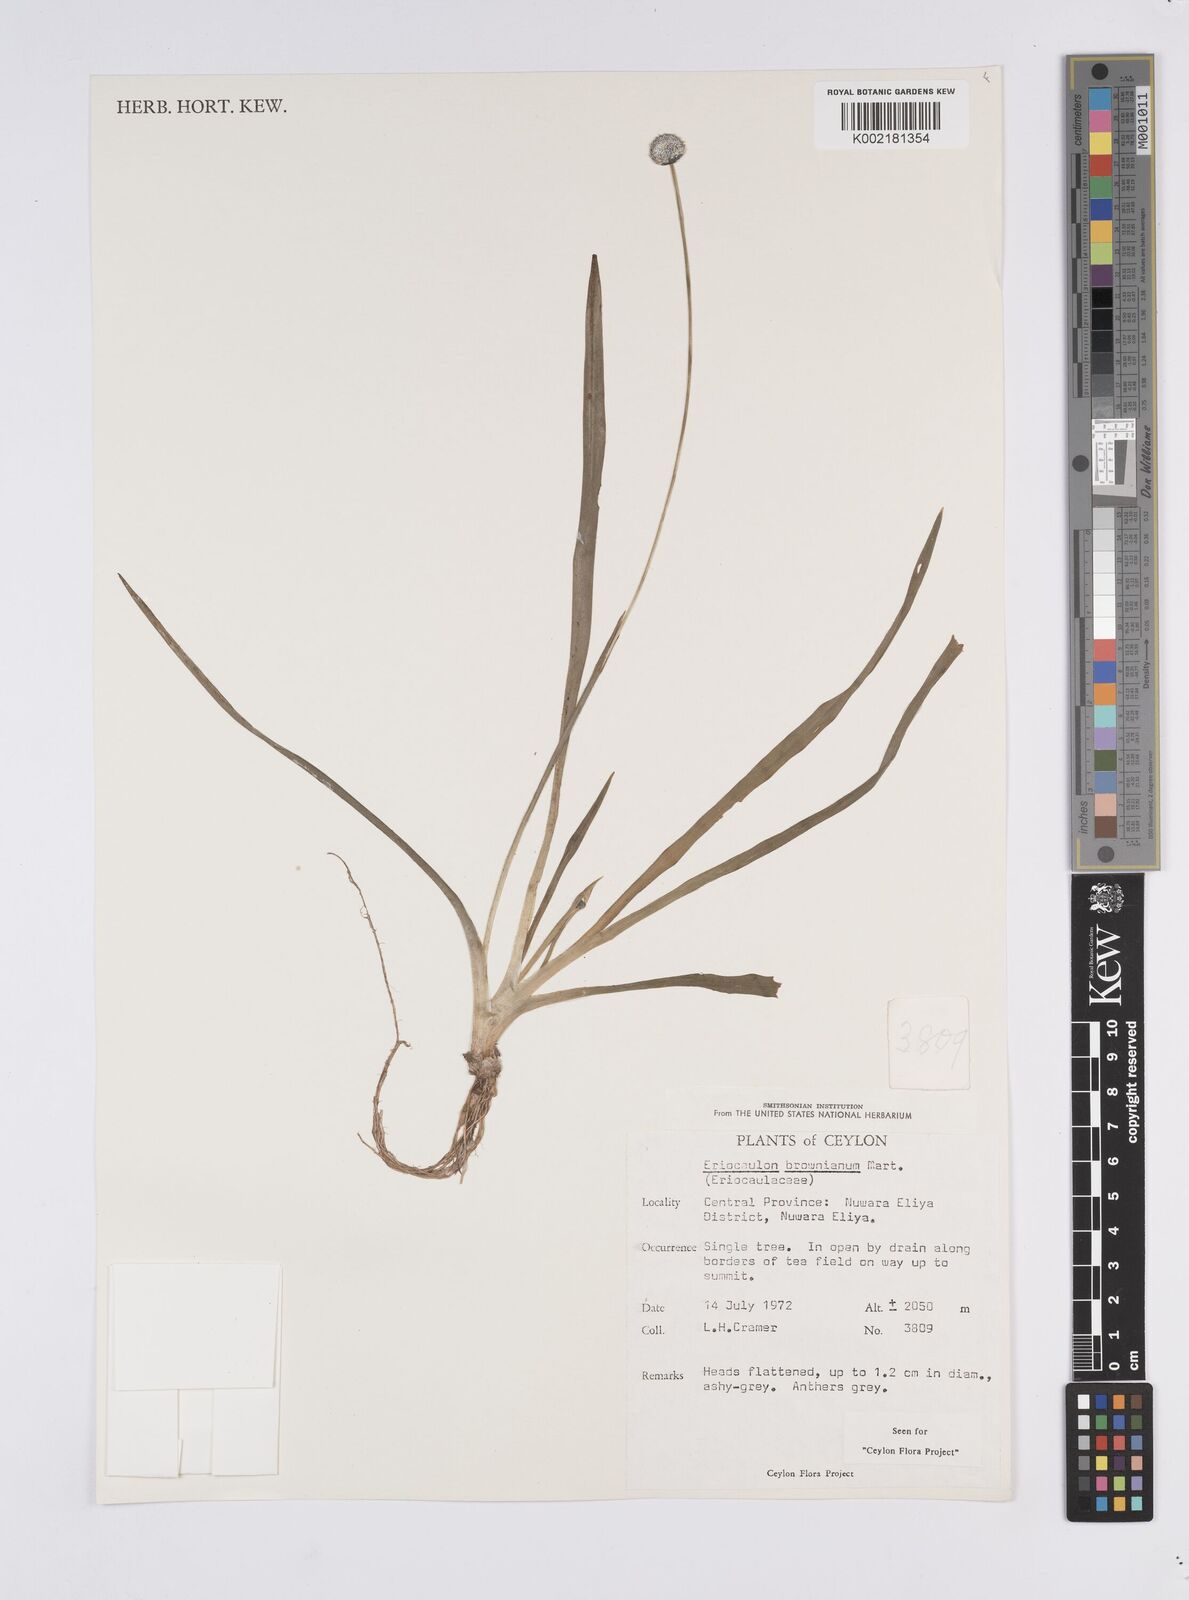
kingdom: Plantae
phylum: Tracheophyta
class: Liliopsida
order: Poales
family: Eriocaulaceae
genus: Eriocaulon
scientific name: Eriocaulon brownianum
